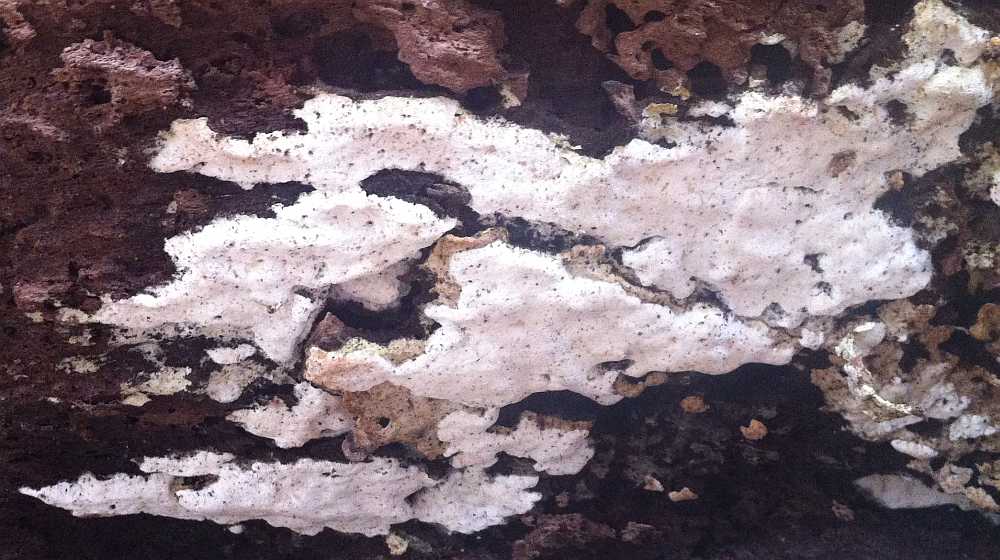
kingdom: Fungi
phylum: Basidiomycota
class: Agaricomycetes
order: Hymenochaetales
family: Oxyporaceae
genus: Oxyporus
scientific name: Oxyporus obducens
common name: skorpe-trylleporesvamp
